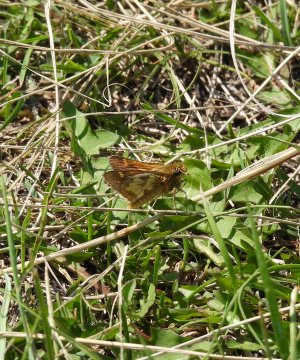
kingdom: Animalia
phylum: Arthropoda
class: Insecta
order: Lepidoptera
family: Hesperiidae
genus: Polites
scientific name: Polites coras
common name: Peck's Skipper
